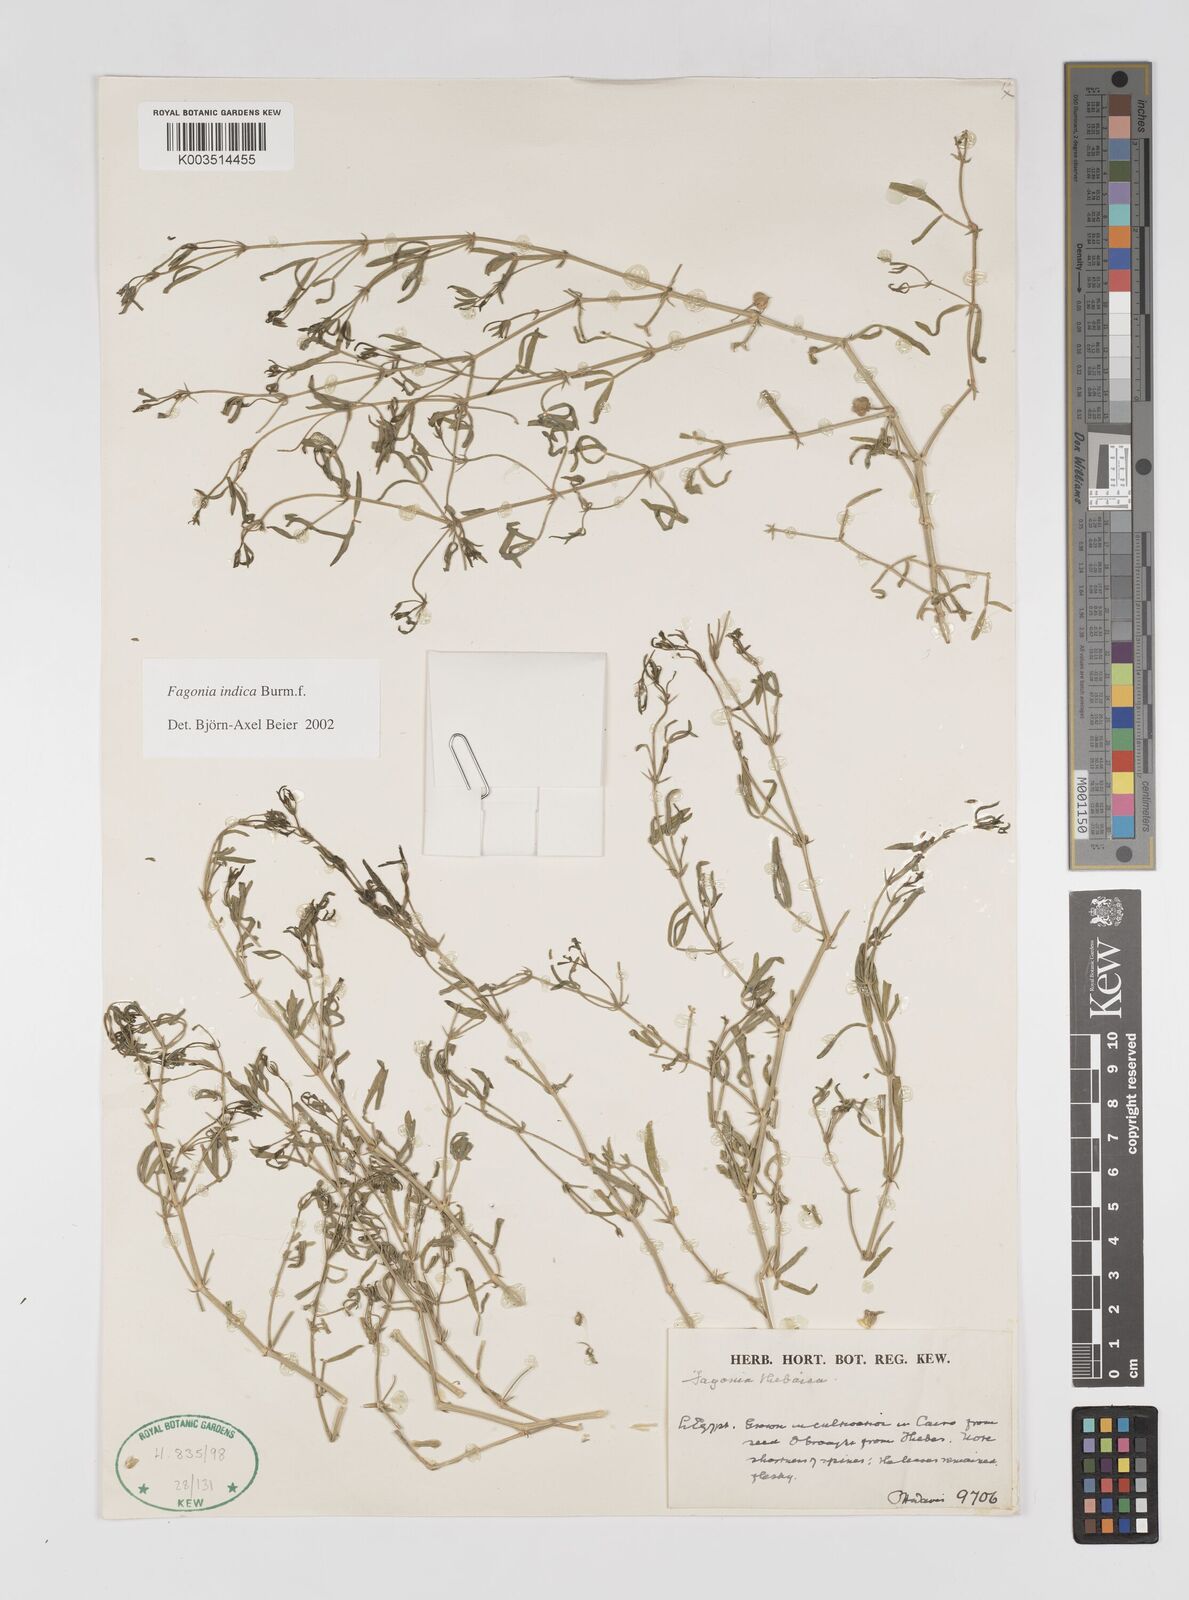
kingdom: Plantae
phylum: Tracheophyta
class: Magnoliopsida
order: Zygophyllales
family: Zygophyllaceae
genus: Fagonia
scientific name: Fagonia indica
